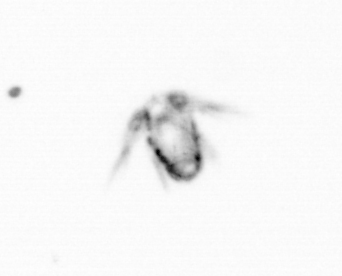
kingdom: Animalia
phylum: Arthropoda
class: Copepoda
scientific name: Copepoda
